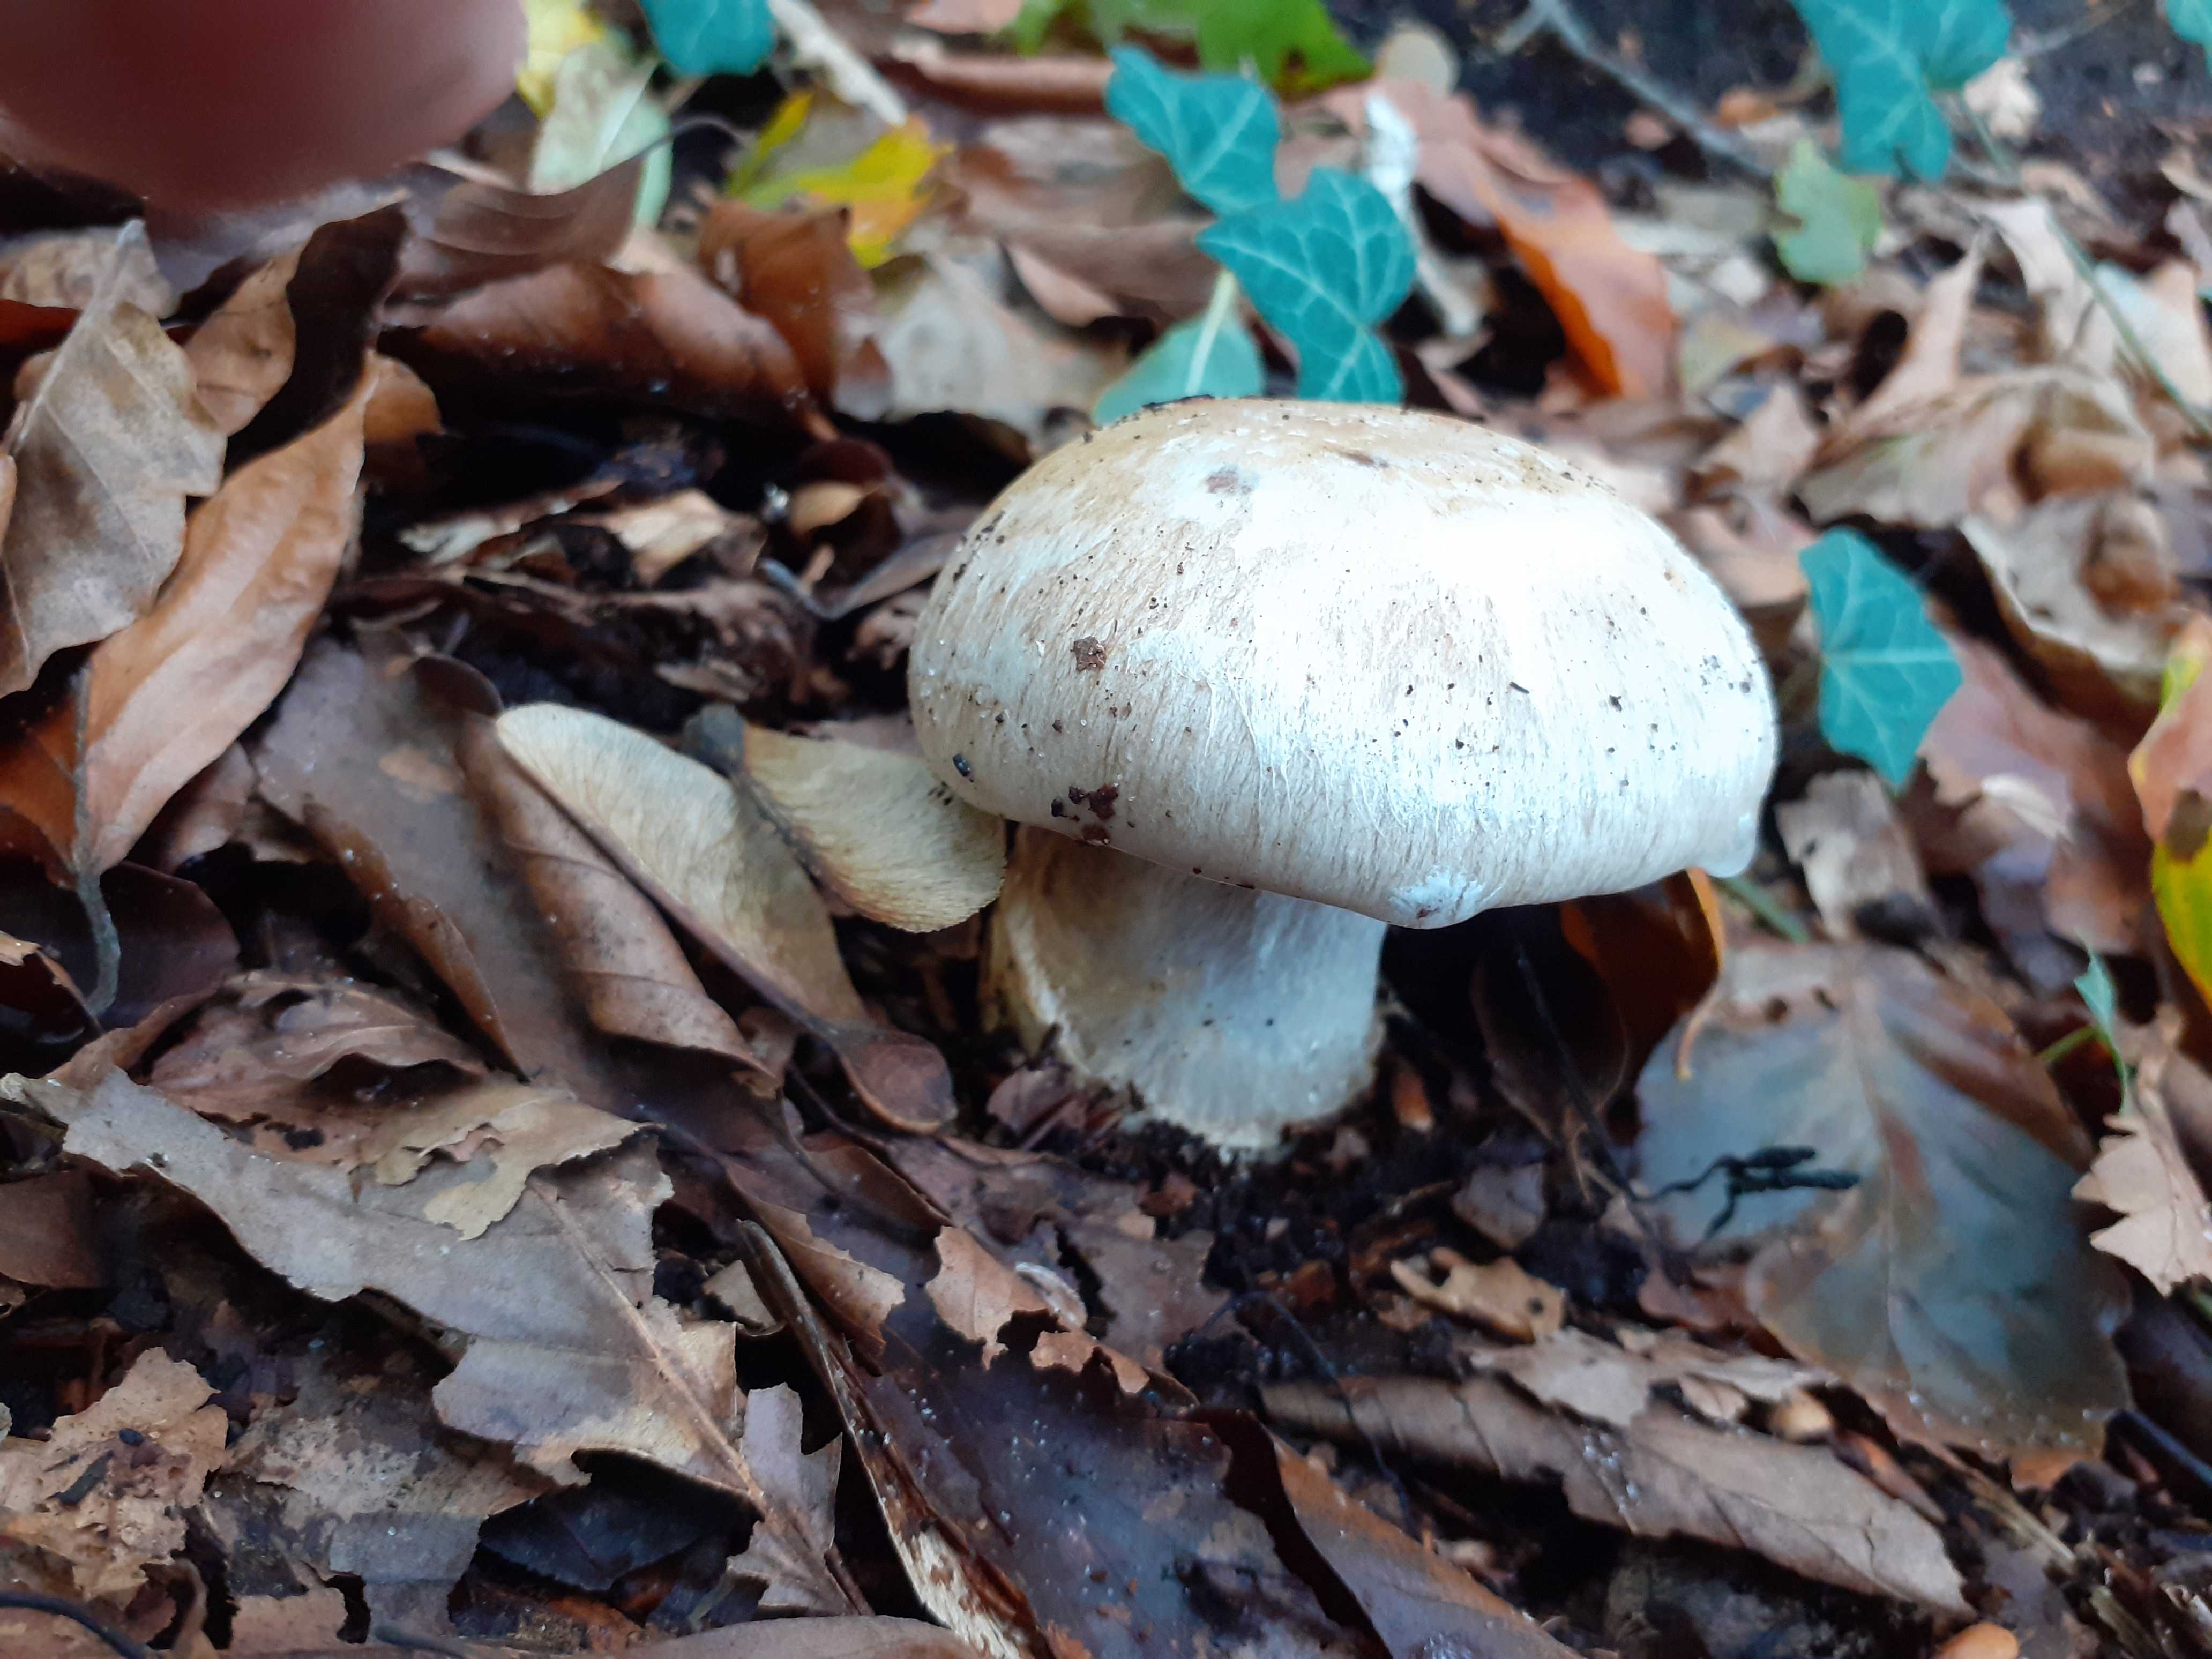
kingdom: Fungi
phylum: Basidiomycota
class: Agaricomycetes
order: Agaricales
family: Cortinariaceae
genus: Cortinarius
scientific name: Cortinarius foetens
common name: stribet slørhat
